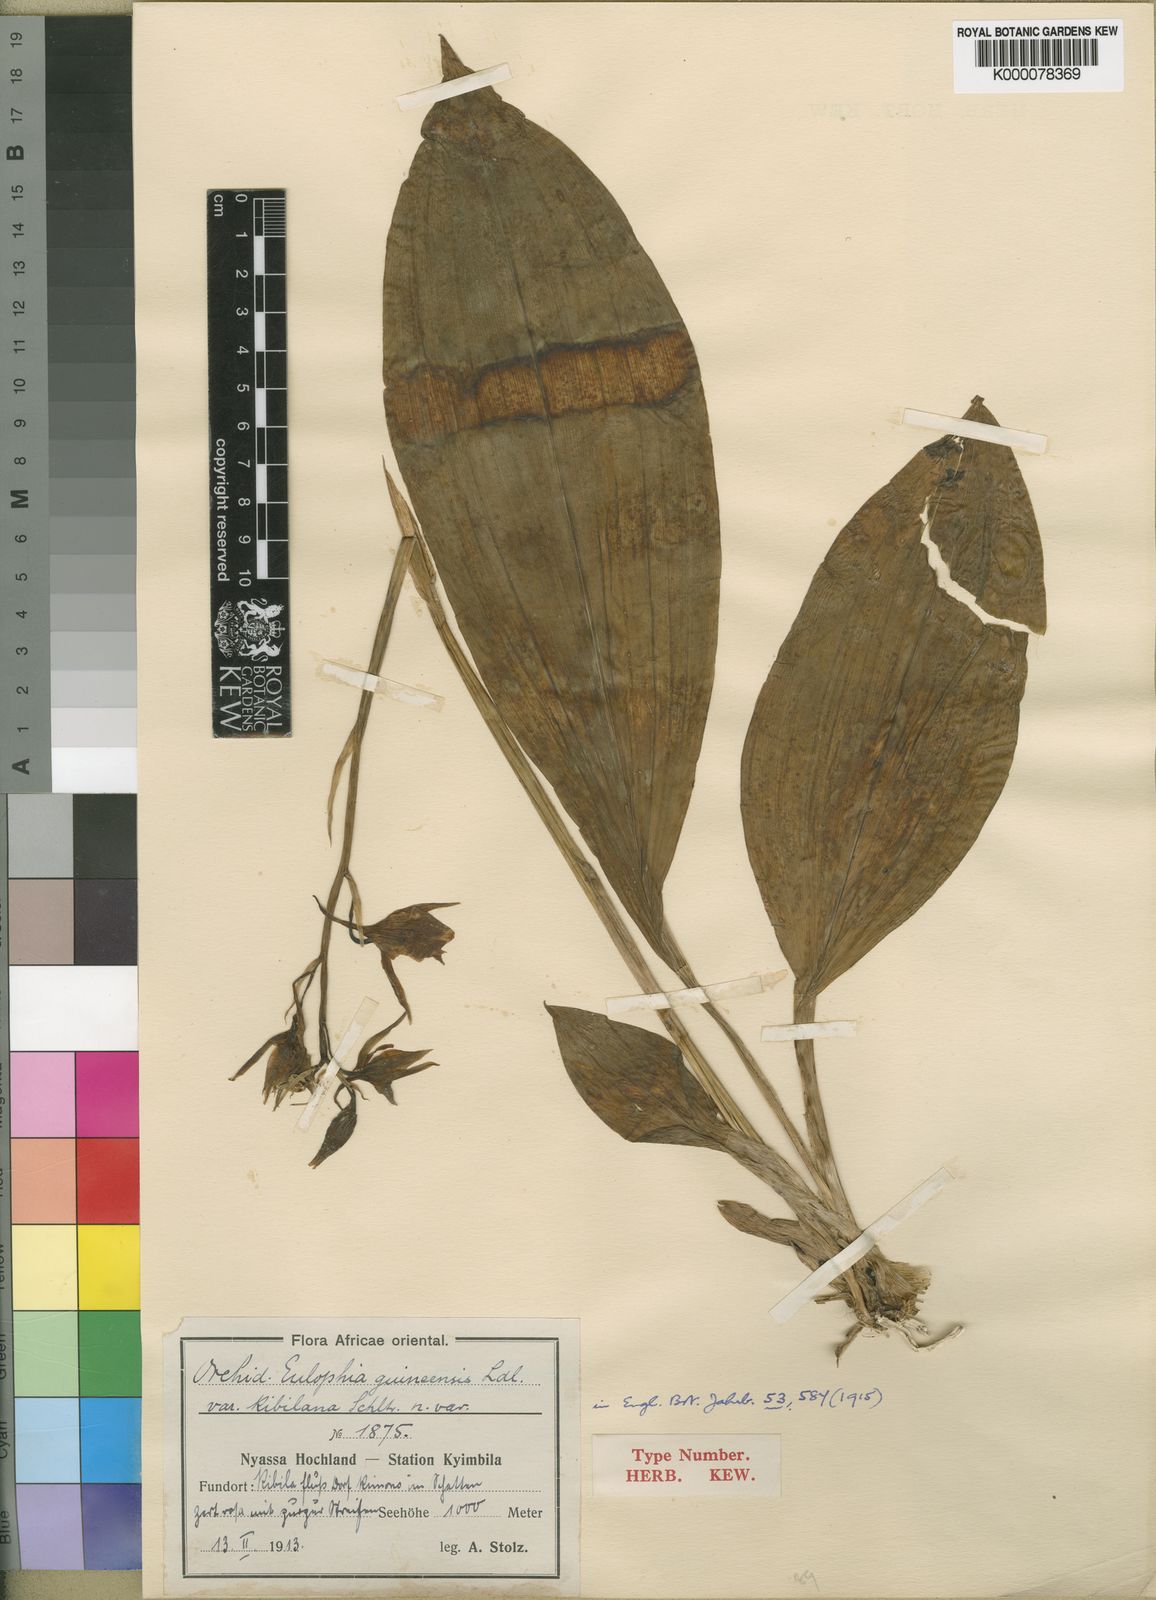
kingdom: Plantae
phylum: Tracheophyta
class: Liliopsida
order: Asparagales
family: Orchidaceae
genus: Eulophia
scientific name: Eulophia guineensis
